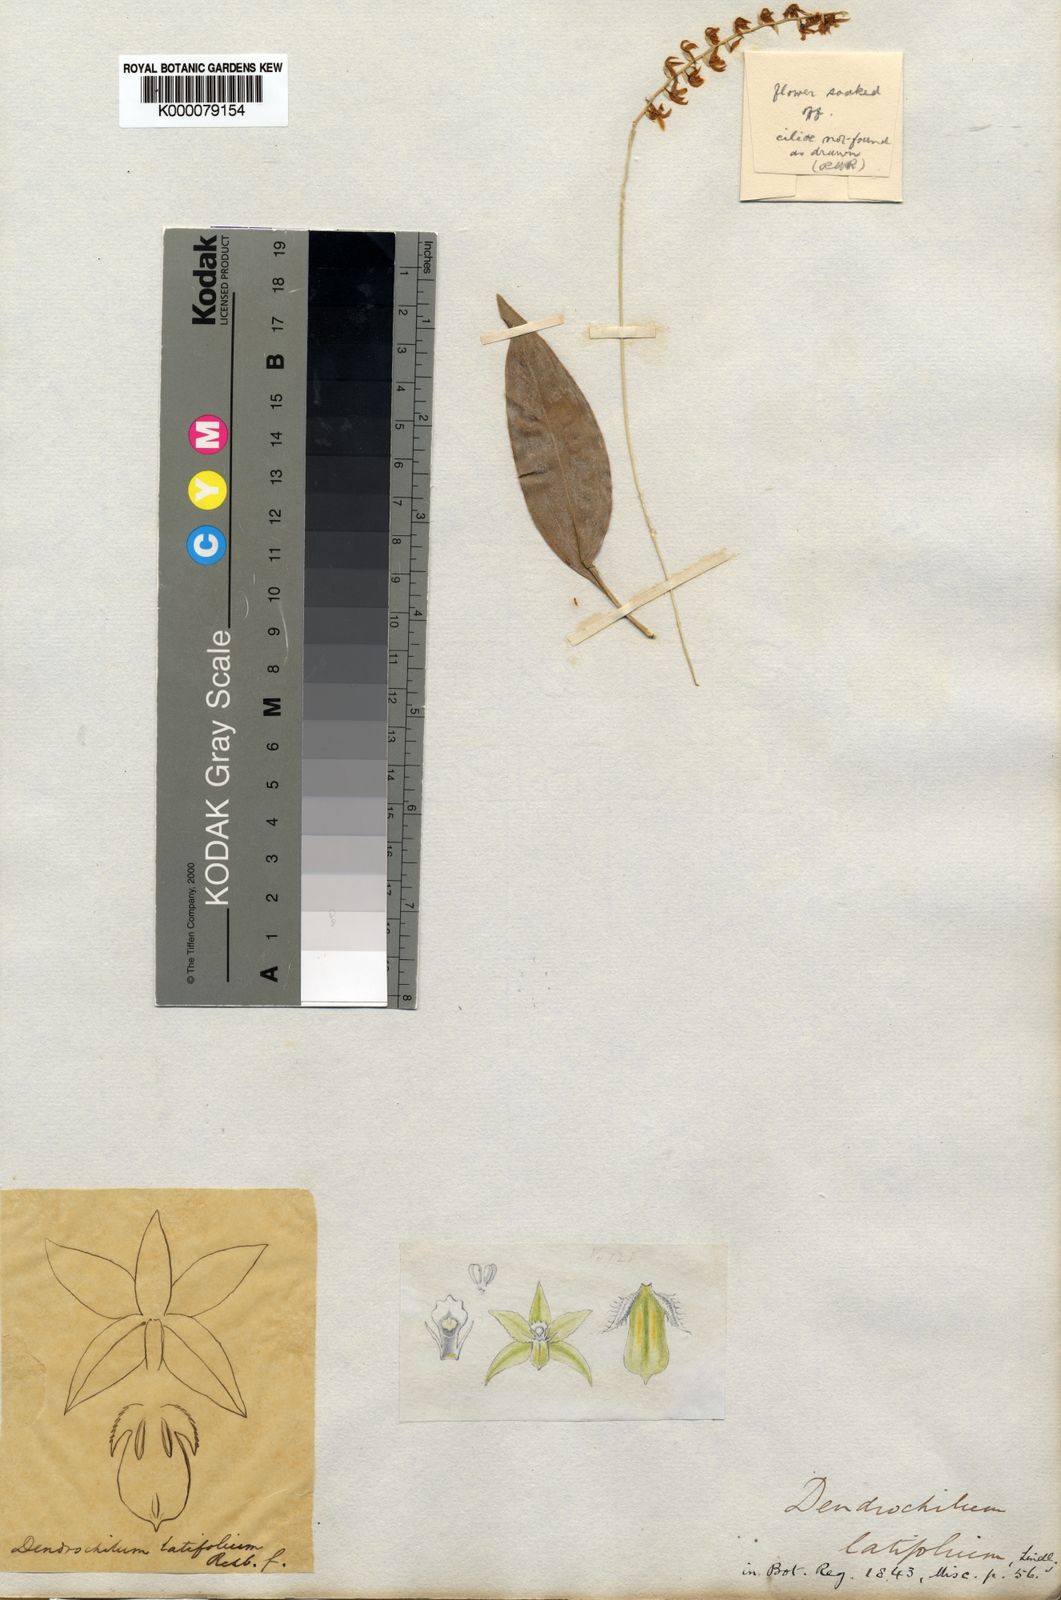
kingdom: Plantae
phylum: Tracheophyta
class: Liliopsida
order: Asparagales
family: Orchidaceae
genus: Coelogyne
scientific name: Coelogyne latifolia
